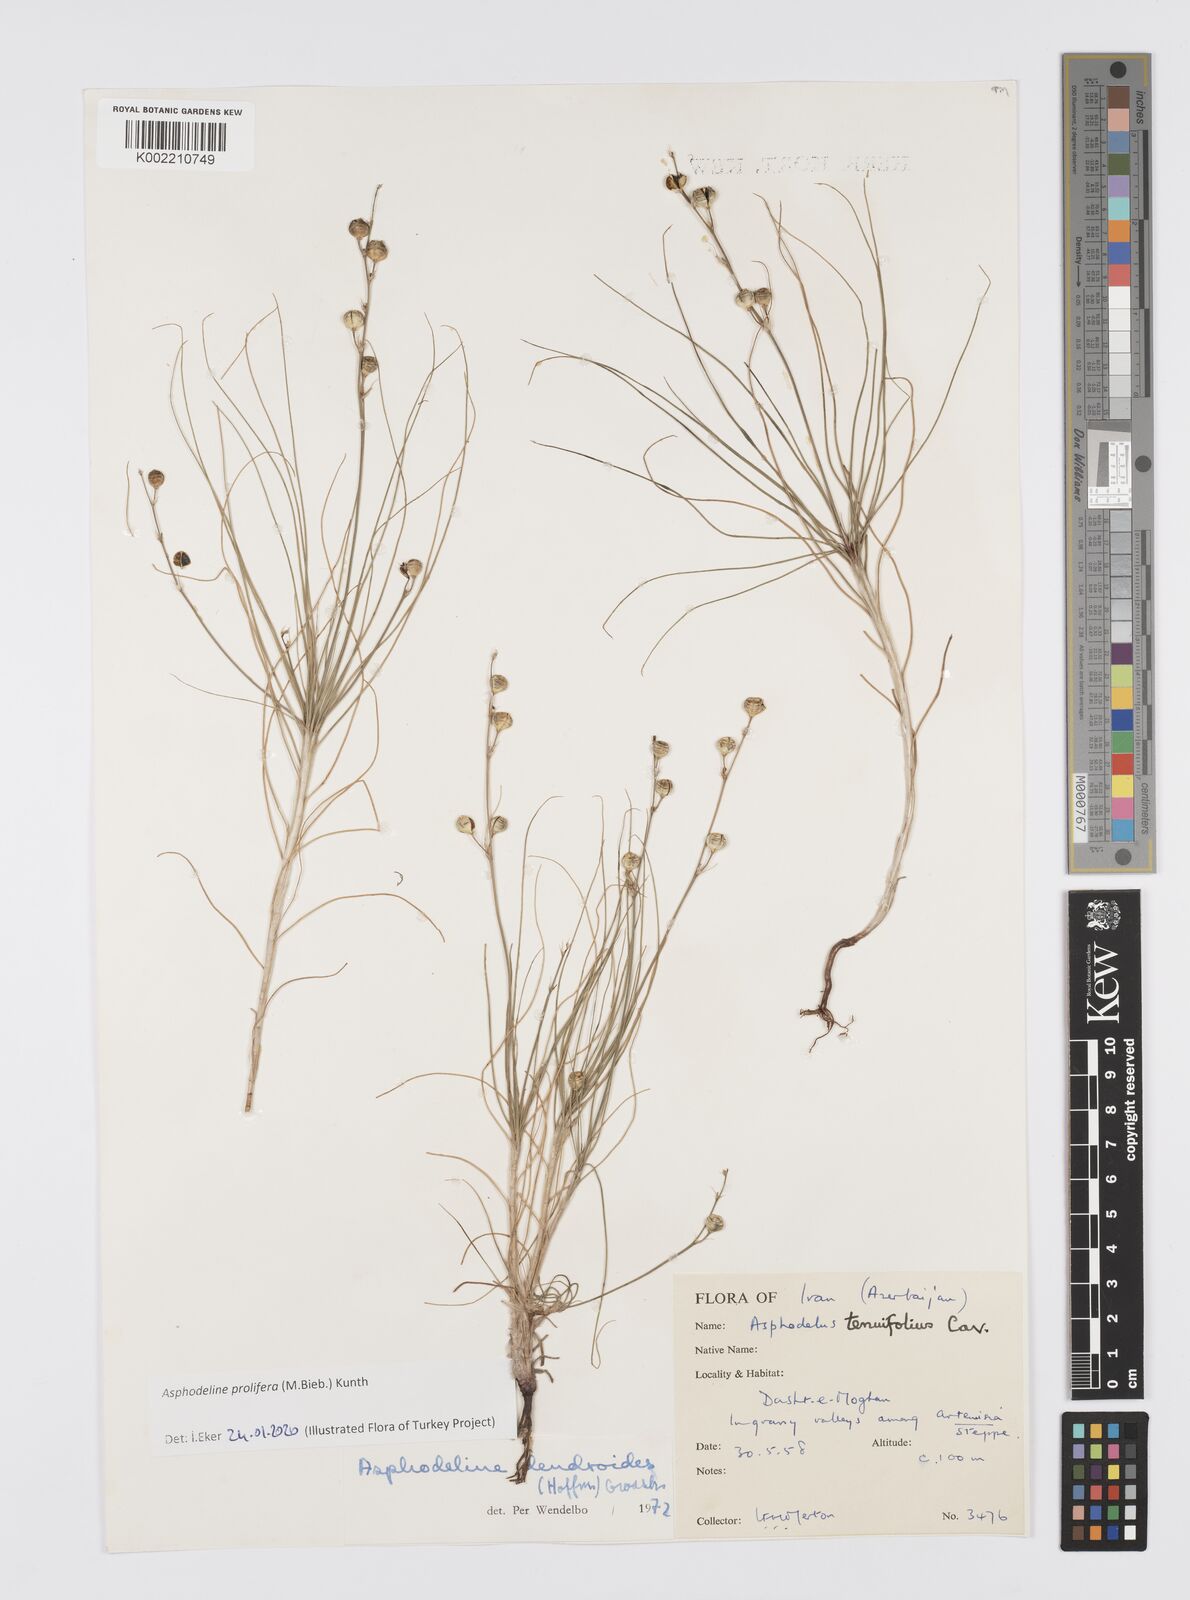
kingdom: Plantae
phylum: Tracheophyta
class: Liliopsida
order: Asparagales
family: Asphodelaceae
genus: Asphodeline
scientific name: Asphodeline prolifera
